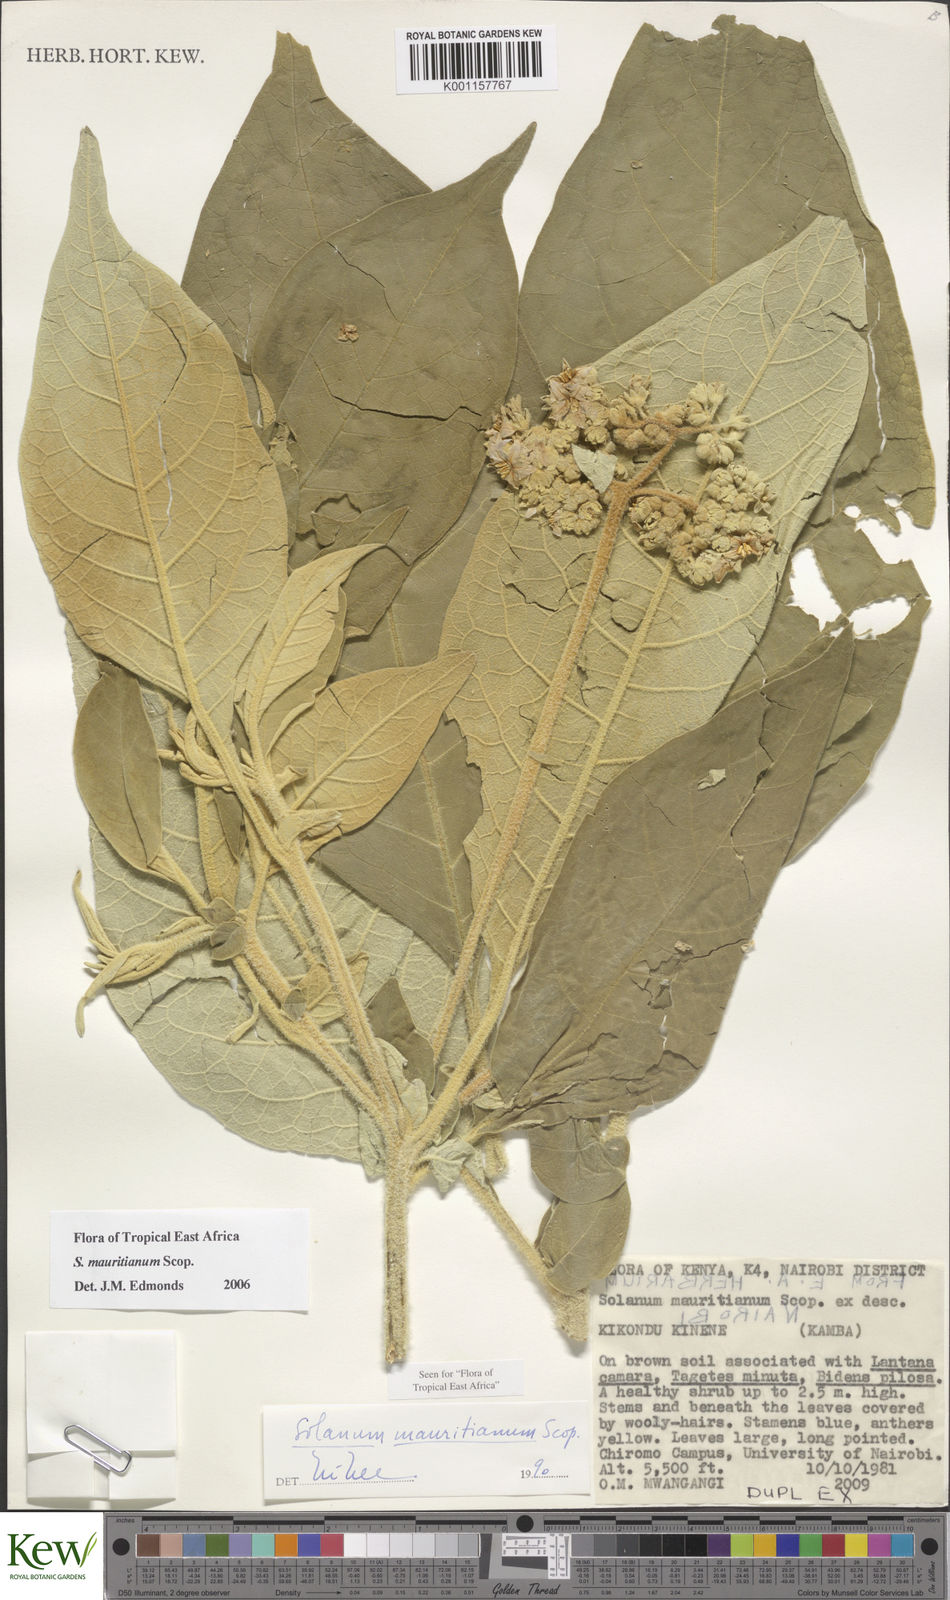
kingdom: Plantae
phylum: Tracheophyta
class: Magnoliopsida
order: Solanales
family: Solanaceae
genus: Solanum
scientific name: Solanum mauritianum
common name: Earleaf nightshade
